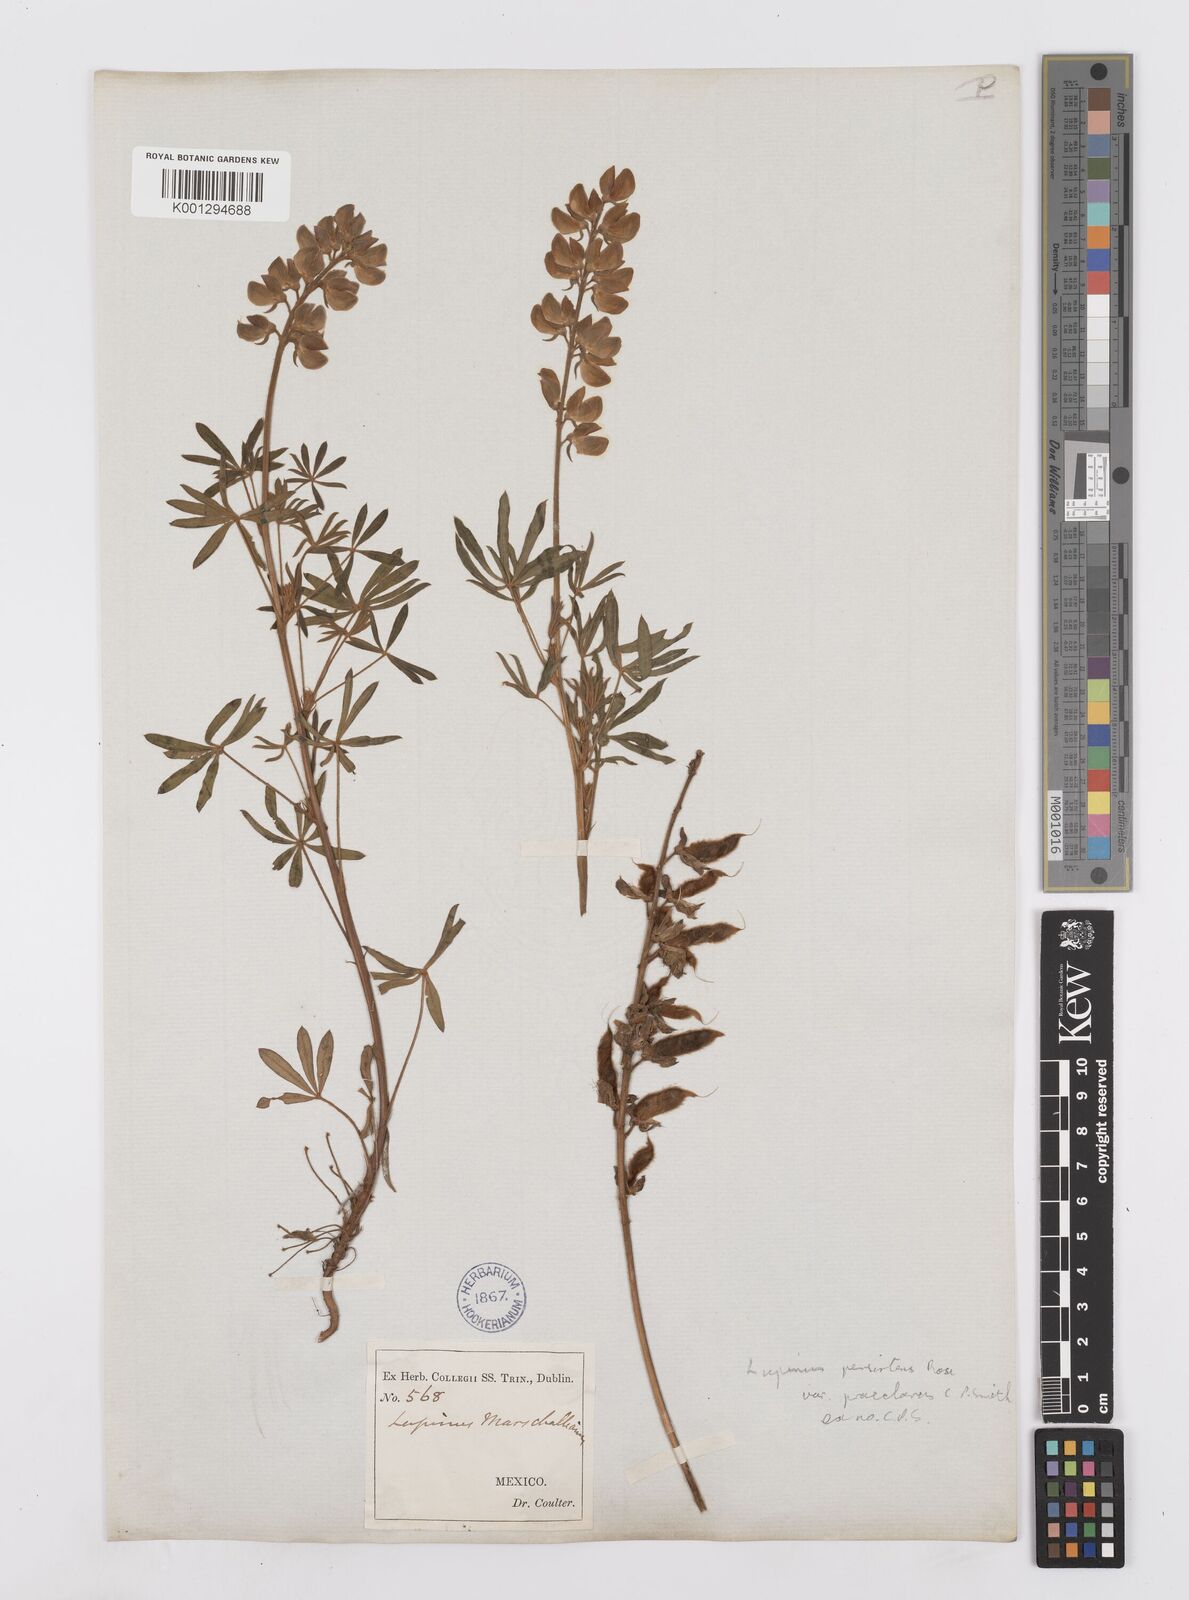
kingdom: Plantae
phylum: Tracheophyta
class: Magnoliopsida
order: Fabales
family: Fabaceae
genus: Lupinus
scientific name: Lupinus persistens
